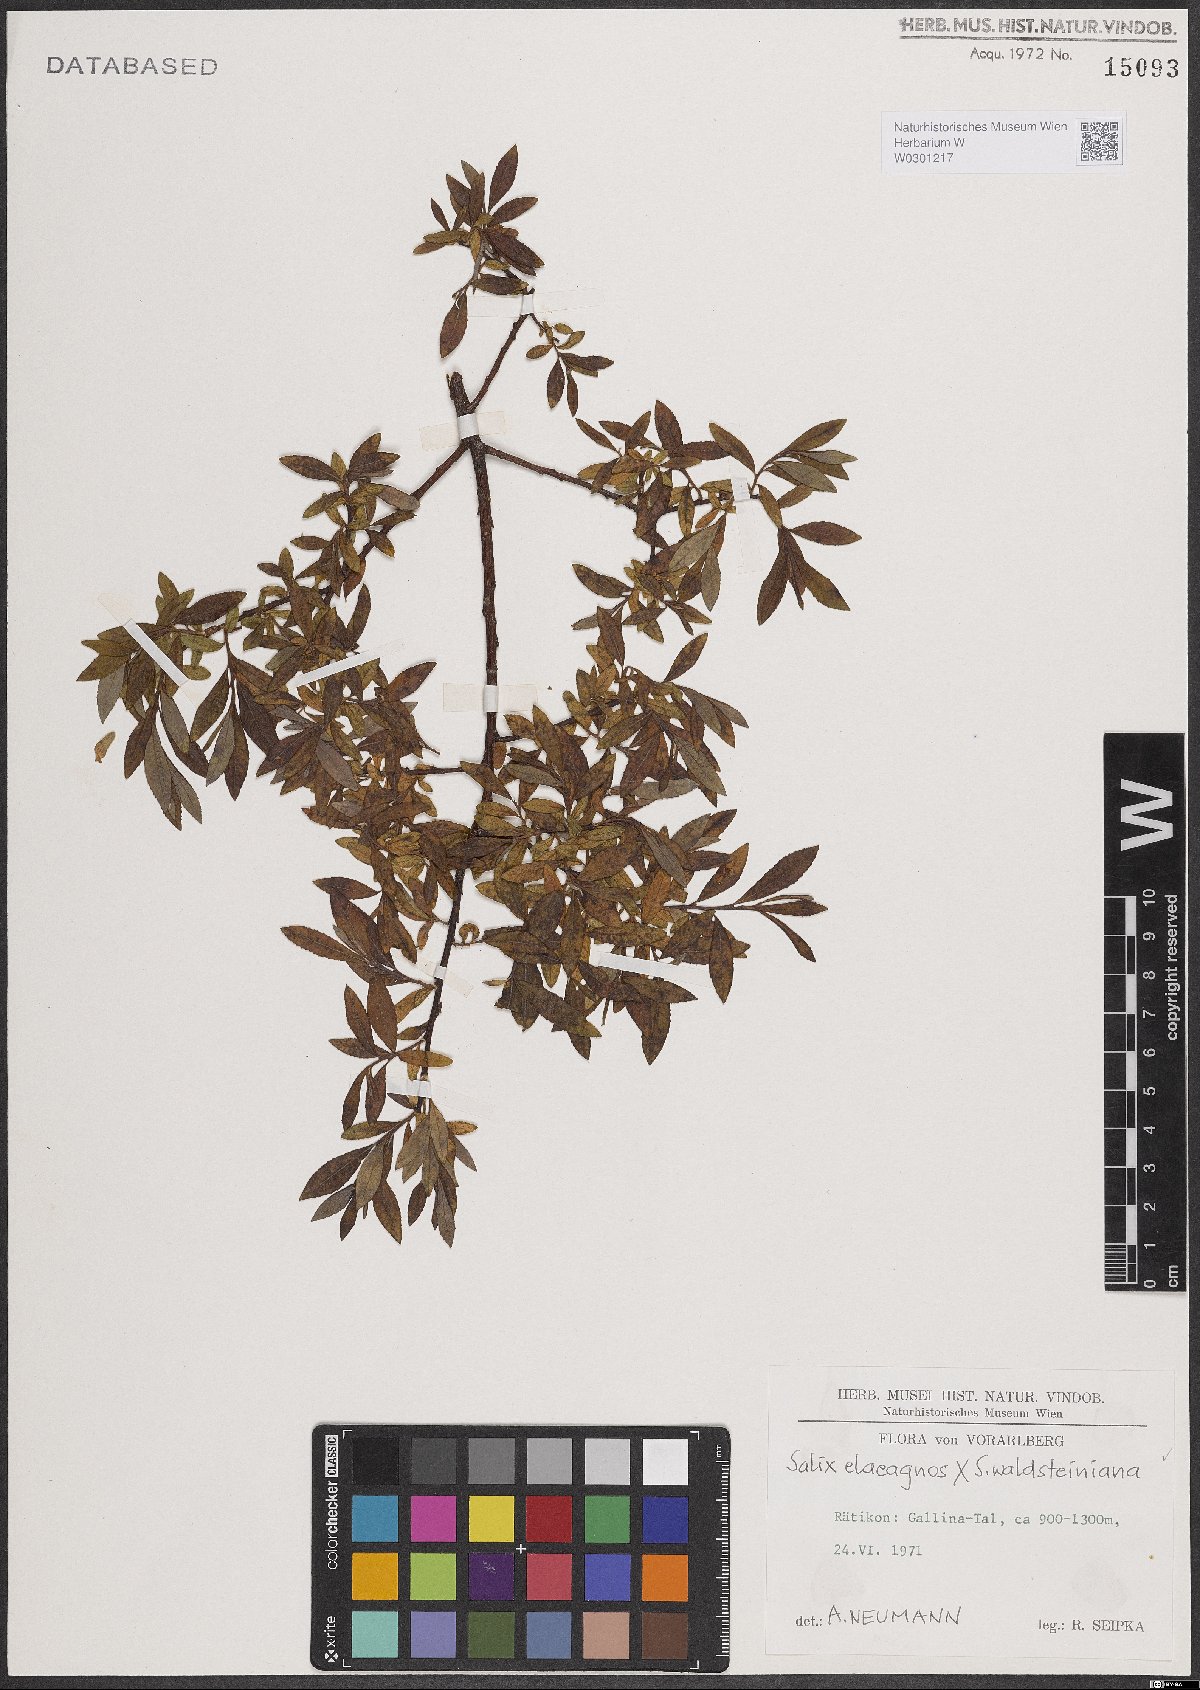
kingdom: Plantae
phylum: Tracheophyta
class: Magnoliopsida
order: Malpighiales
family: Salicaceae
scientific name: Salicaceae
